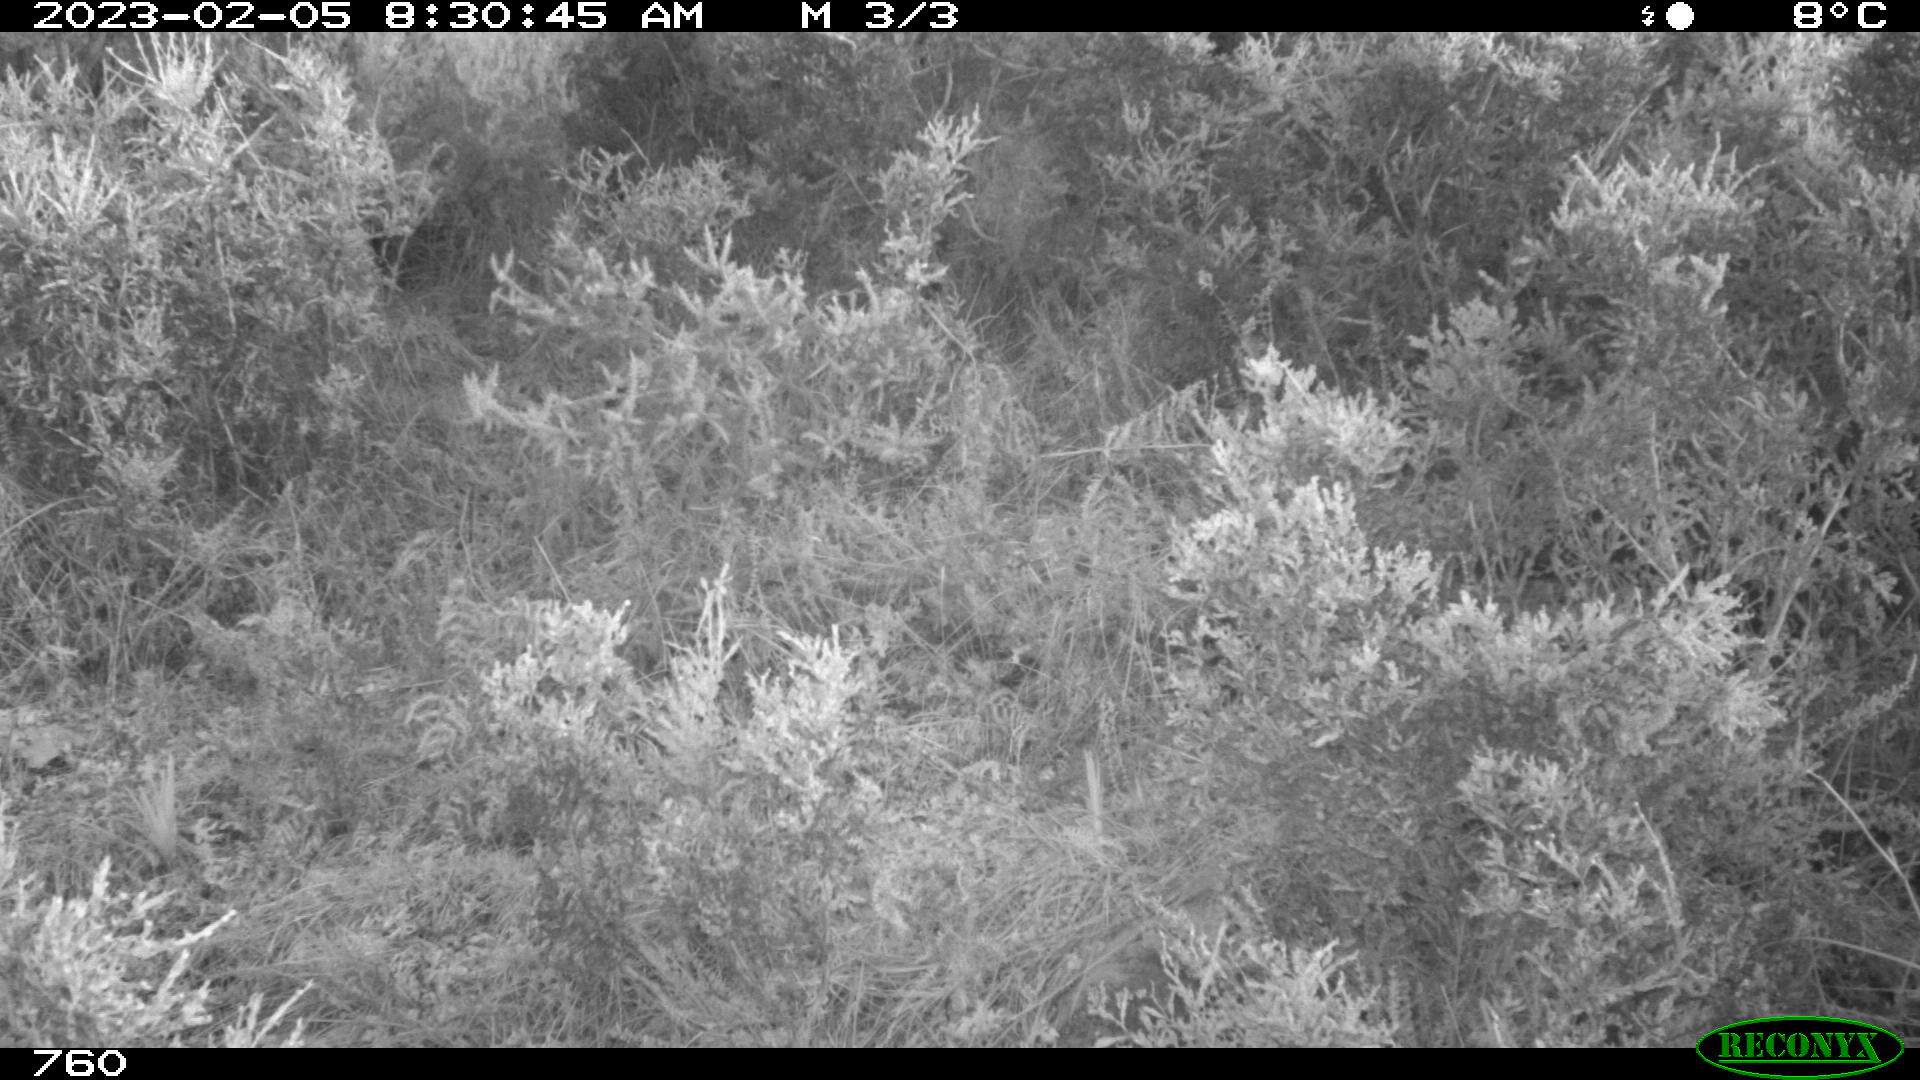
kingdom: Animalia
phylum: Chordata
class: Mammalia
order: Carnivora
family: Canidae
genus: Vulpes
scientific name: Vulpes vulpes
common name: Red fox
